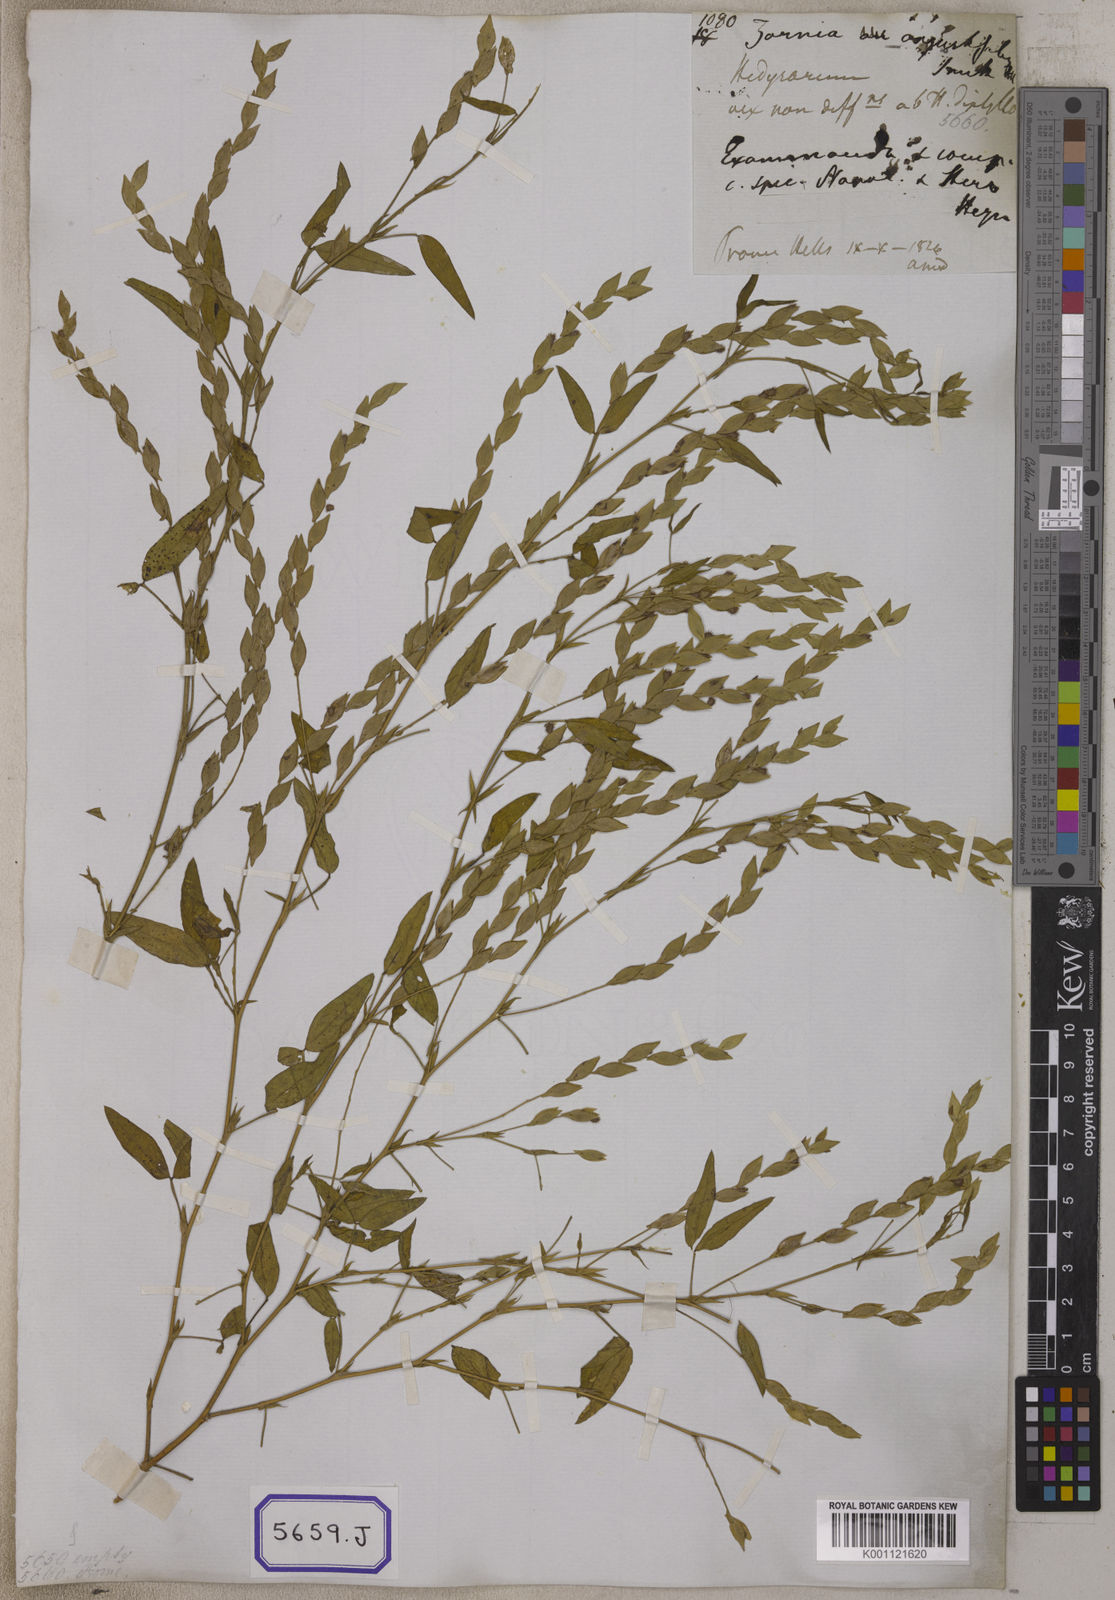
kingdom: Plantae
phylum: Tracheophyta
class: Magnoliopsida
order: Fabales
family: Fabaceae
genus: Zornia
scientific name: Zornia gibbosa
